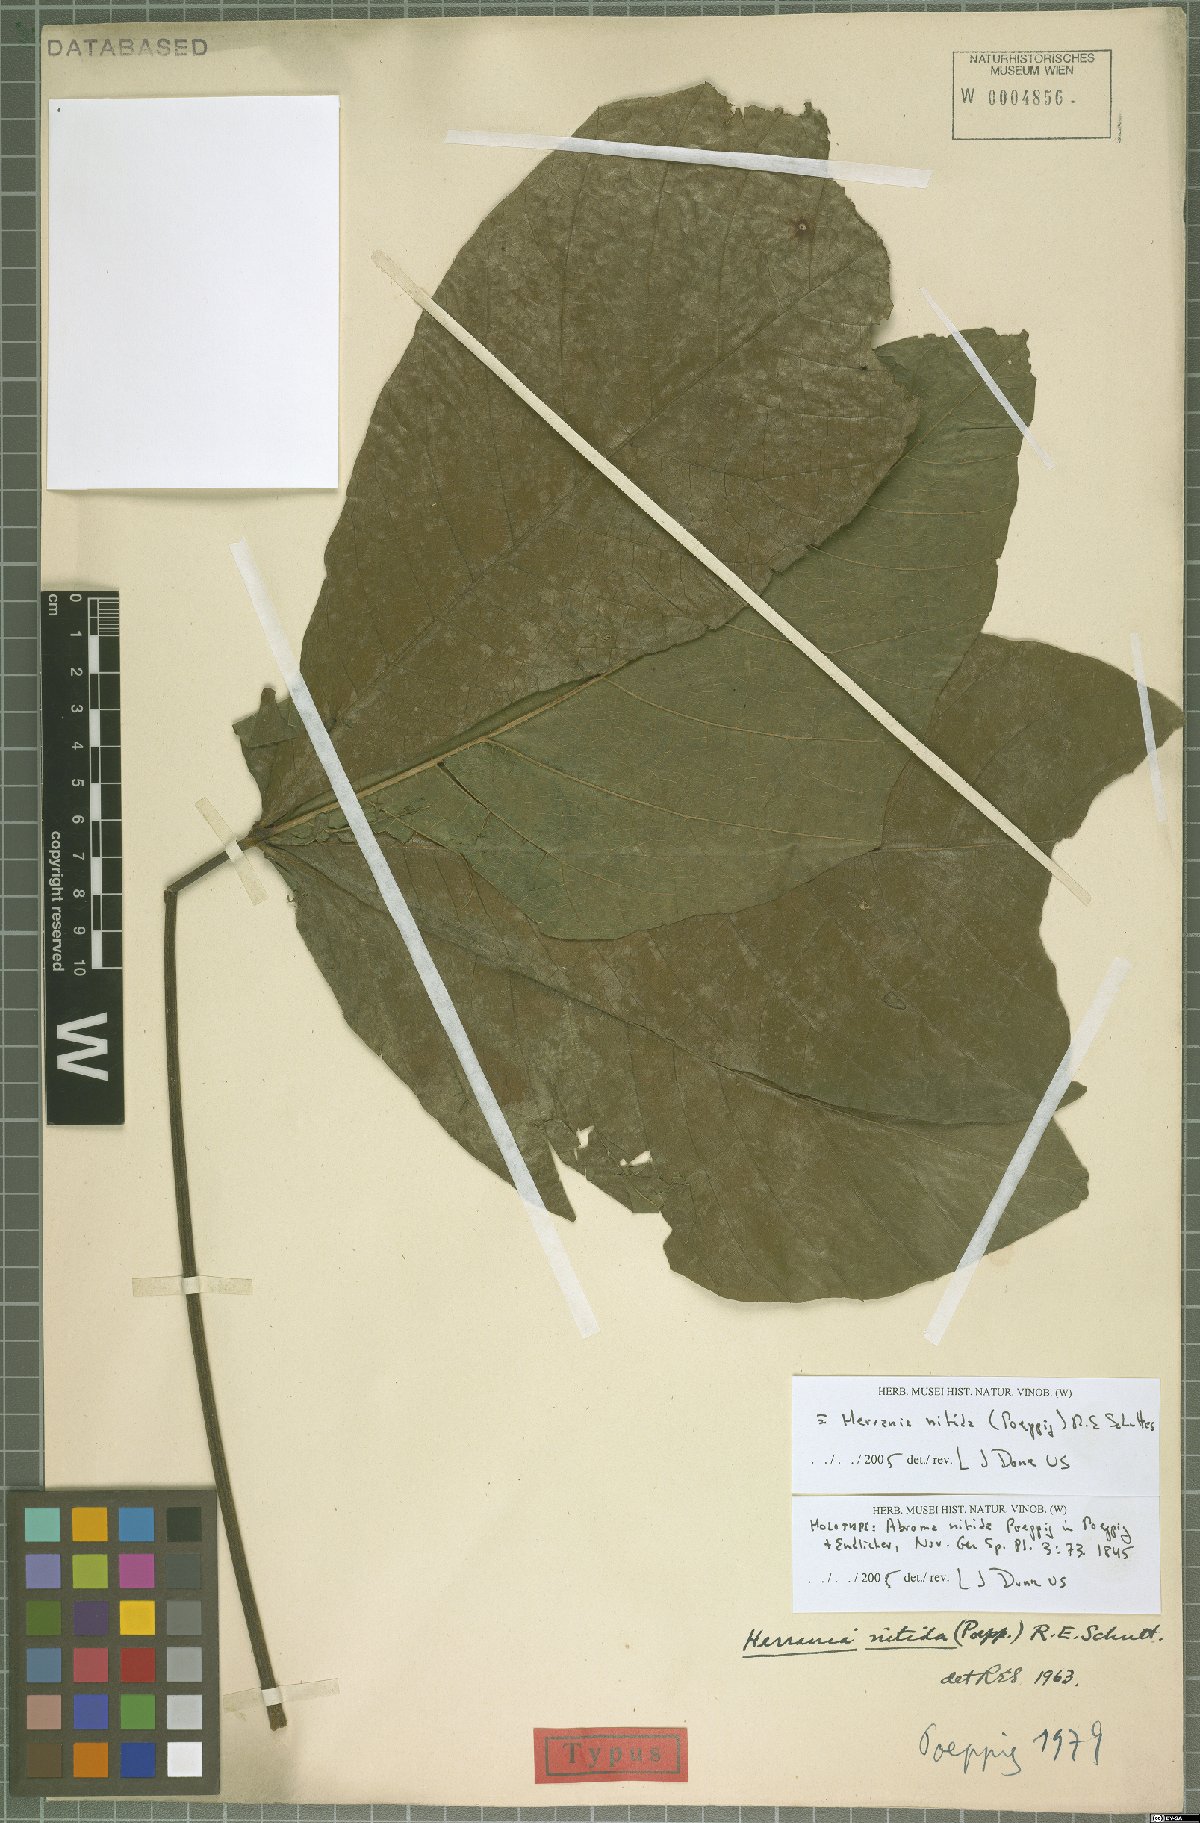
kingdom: Plantae
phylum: Tracheophyta
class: Magnoliopsida
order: Malvales
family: Malvaceae
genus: Herrania
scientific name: Herrania nitida
